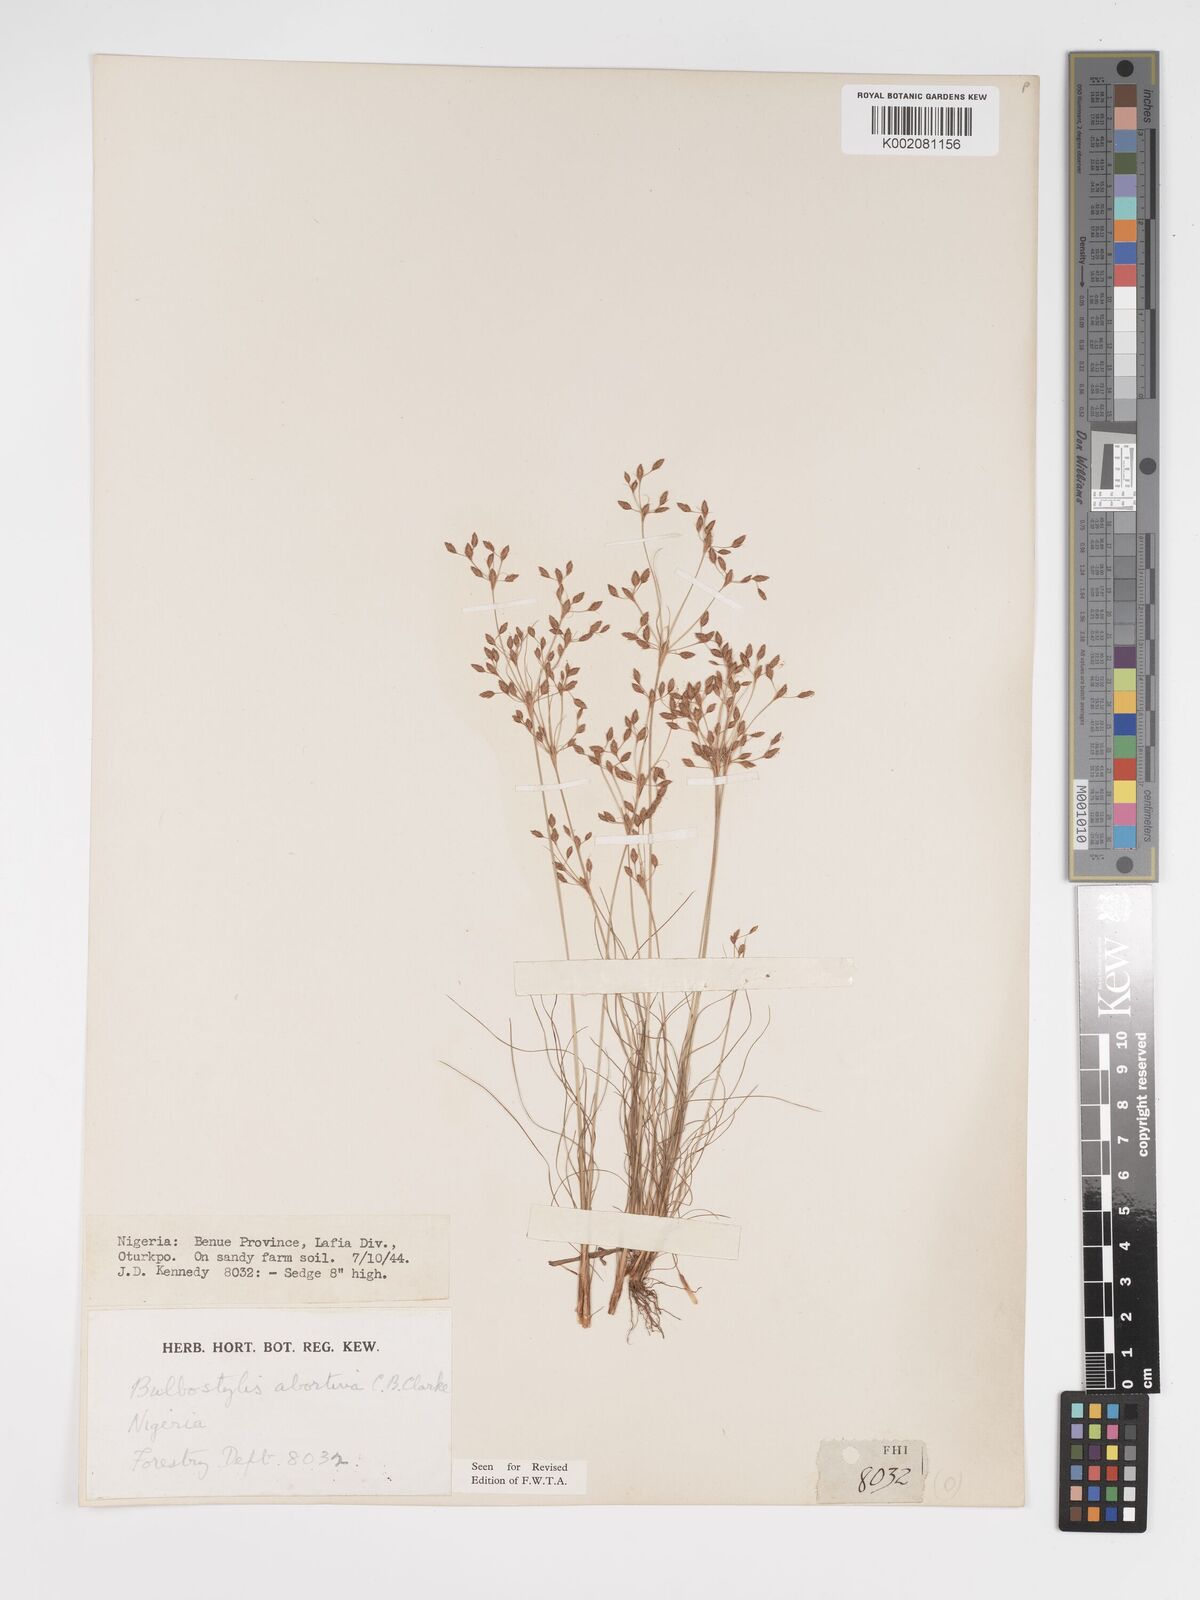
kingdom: Plantae
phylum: Tracheophyta
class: Liliopsida
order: Poales
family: Cyperaceae
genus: Bulbostylis
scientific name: Bulbostylis abortiva
